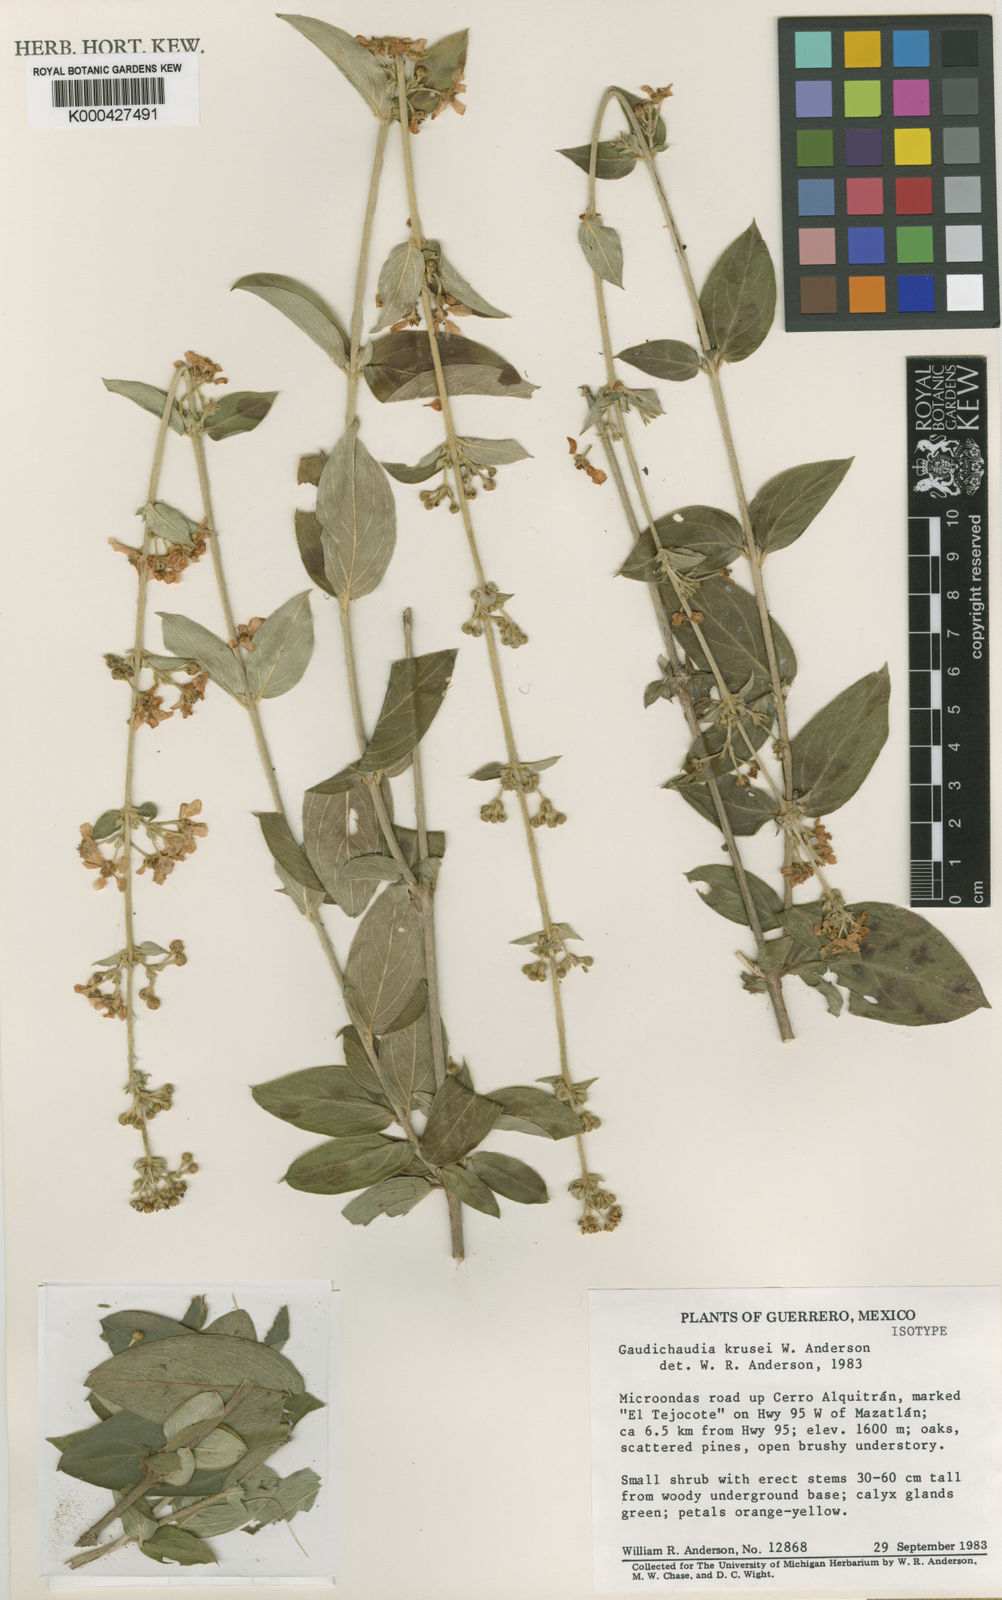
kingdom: Plantae
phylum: Tracheophyta
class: Magnoliopsida
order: Malpighiales
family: Malpighiaceae
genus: Gaudichaudia
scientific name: Gaudichaudia krusei
